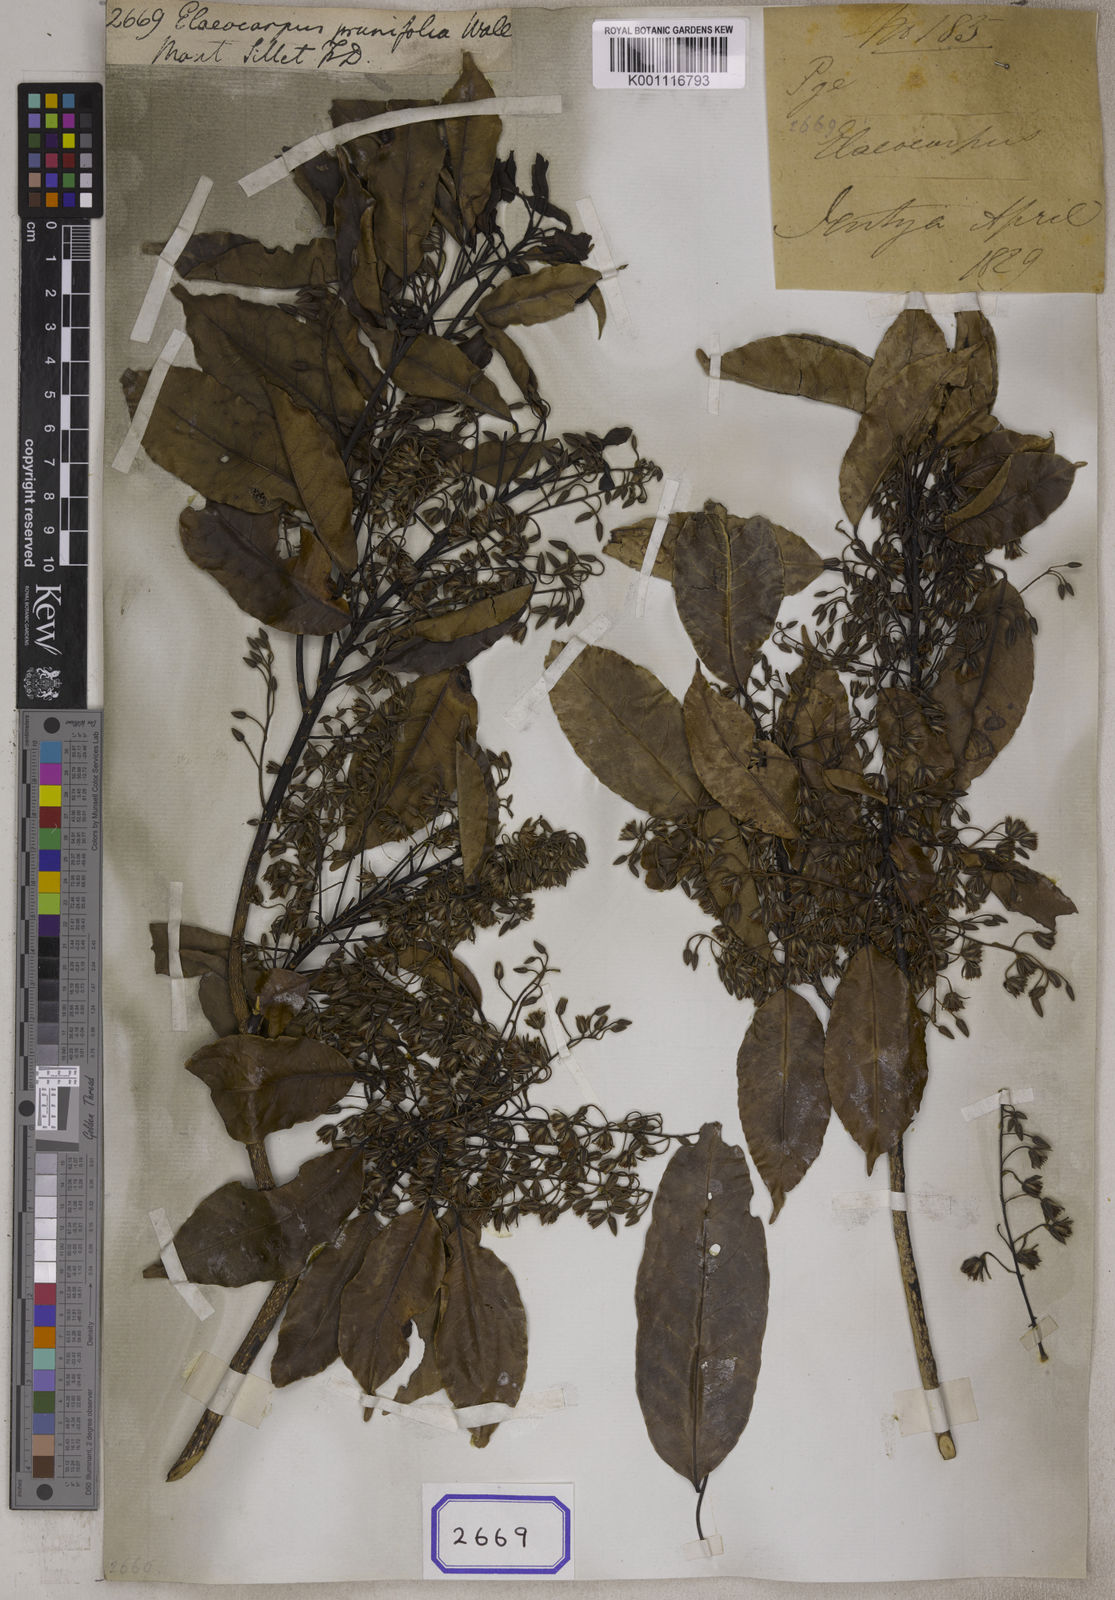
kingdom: Plantae
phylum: Tracheophyta
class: Magnoliopsida
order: Oxalidales
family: Elaeocarpaceae
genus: Elaeocarpus
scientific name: Elaeocarpus
